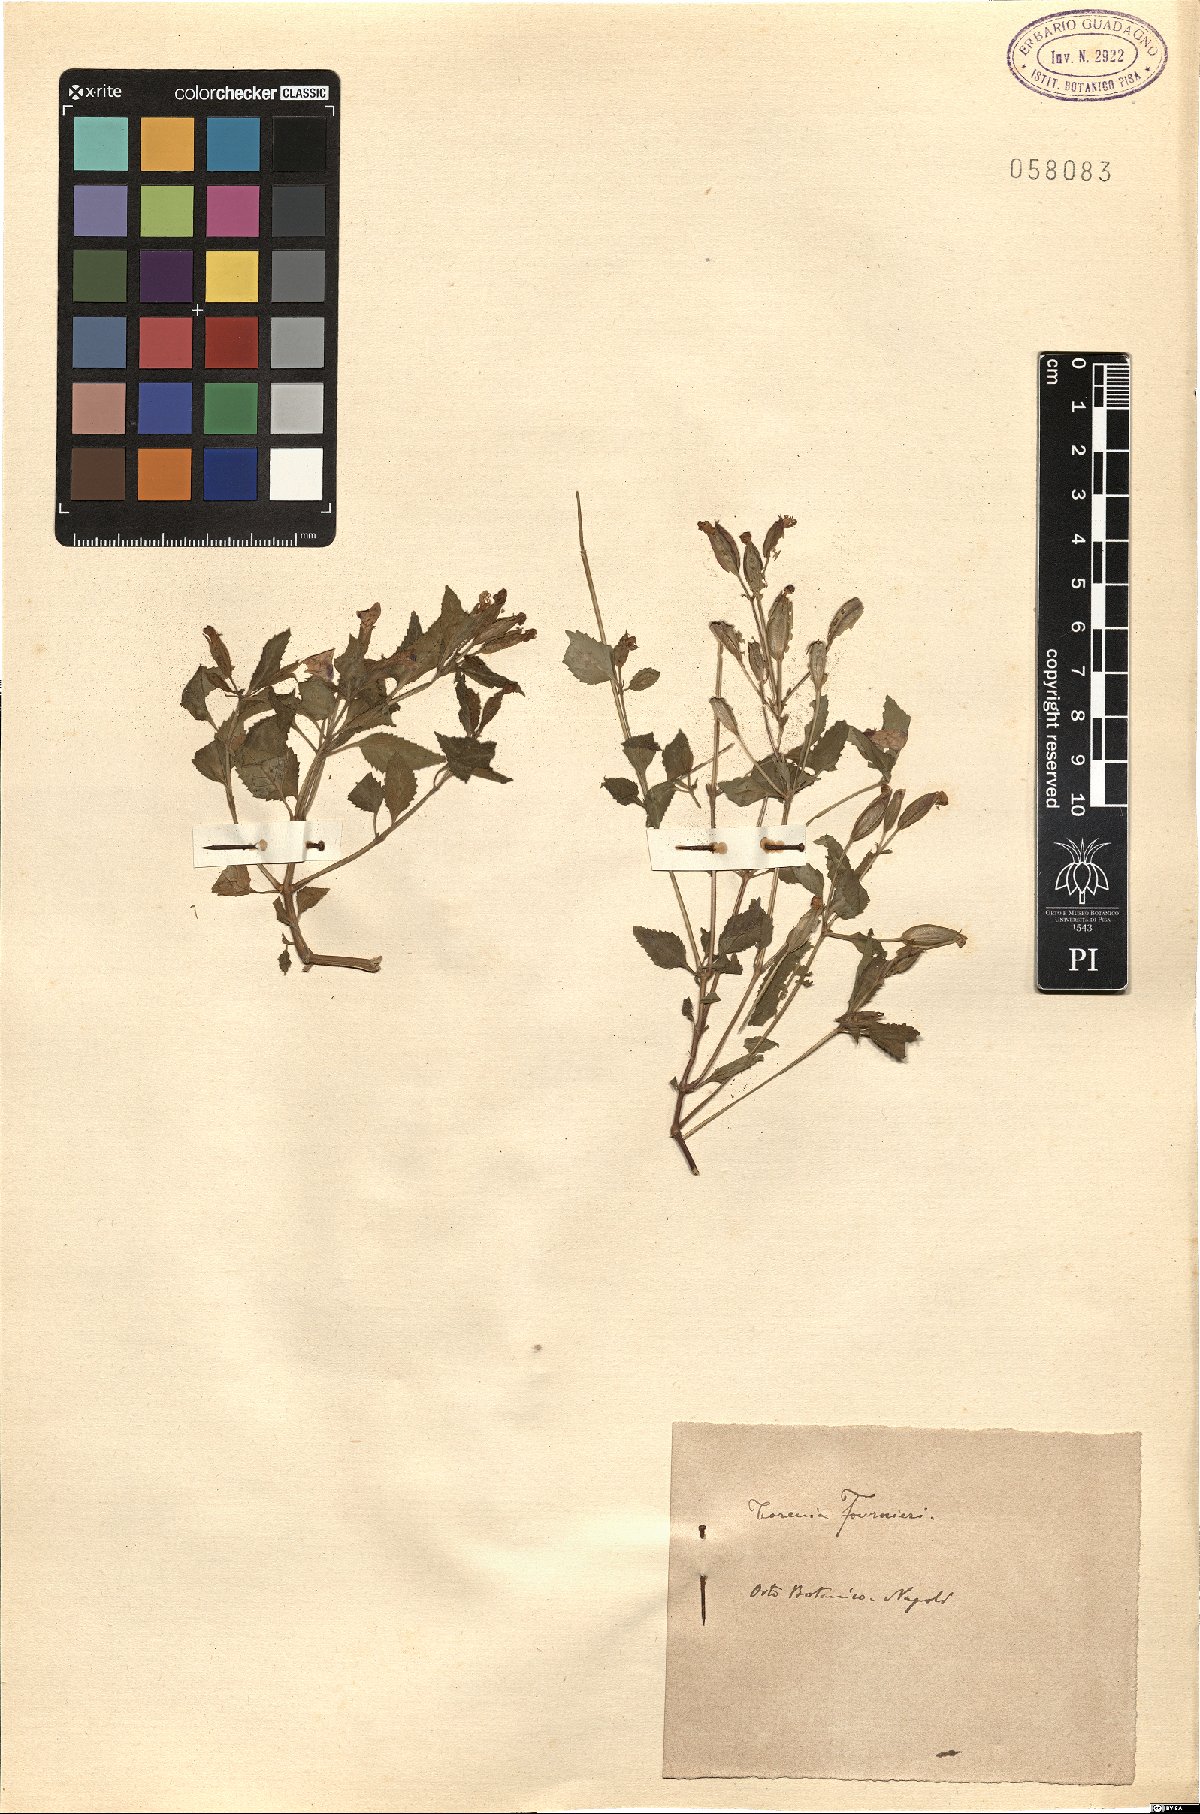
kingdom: Plantae
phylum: Tracheophyta
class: Magnoliopsida
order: Lamiales
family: Linderniaceae
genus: Torenia
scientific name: Torenia fournieri
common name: Bluewings
